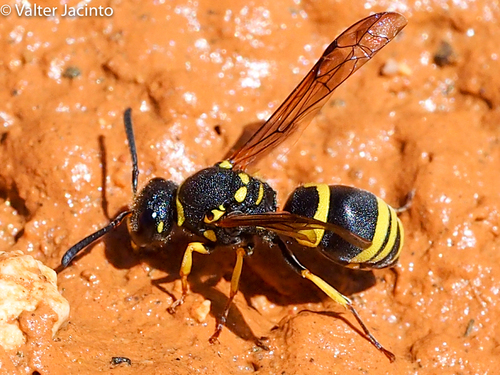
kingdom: Animalia
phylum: Arthropoda
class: Insecta
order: Hymenoptera
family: Vespidae
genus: Ancistrocerus
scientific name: Ancistrocerus renimacula
